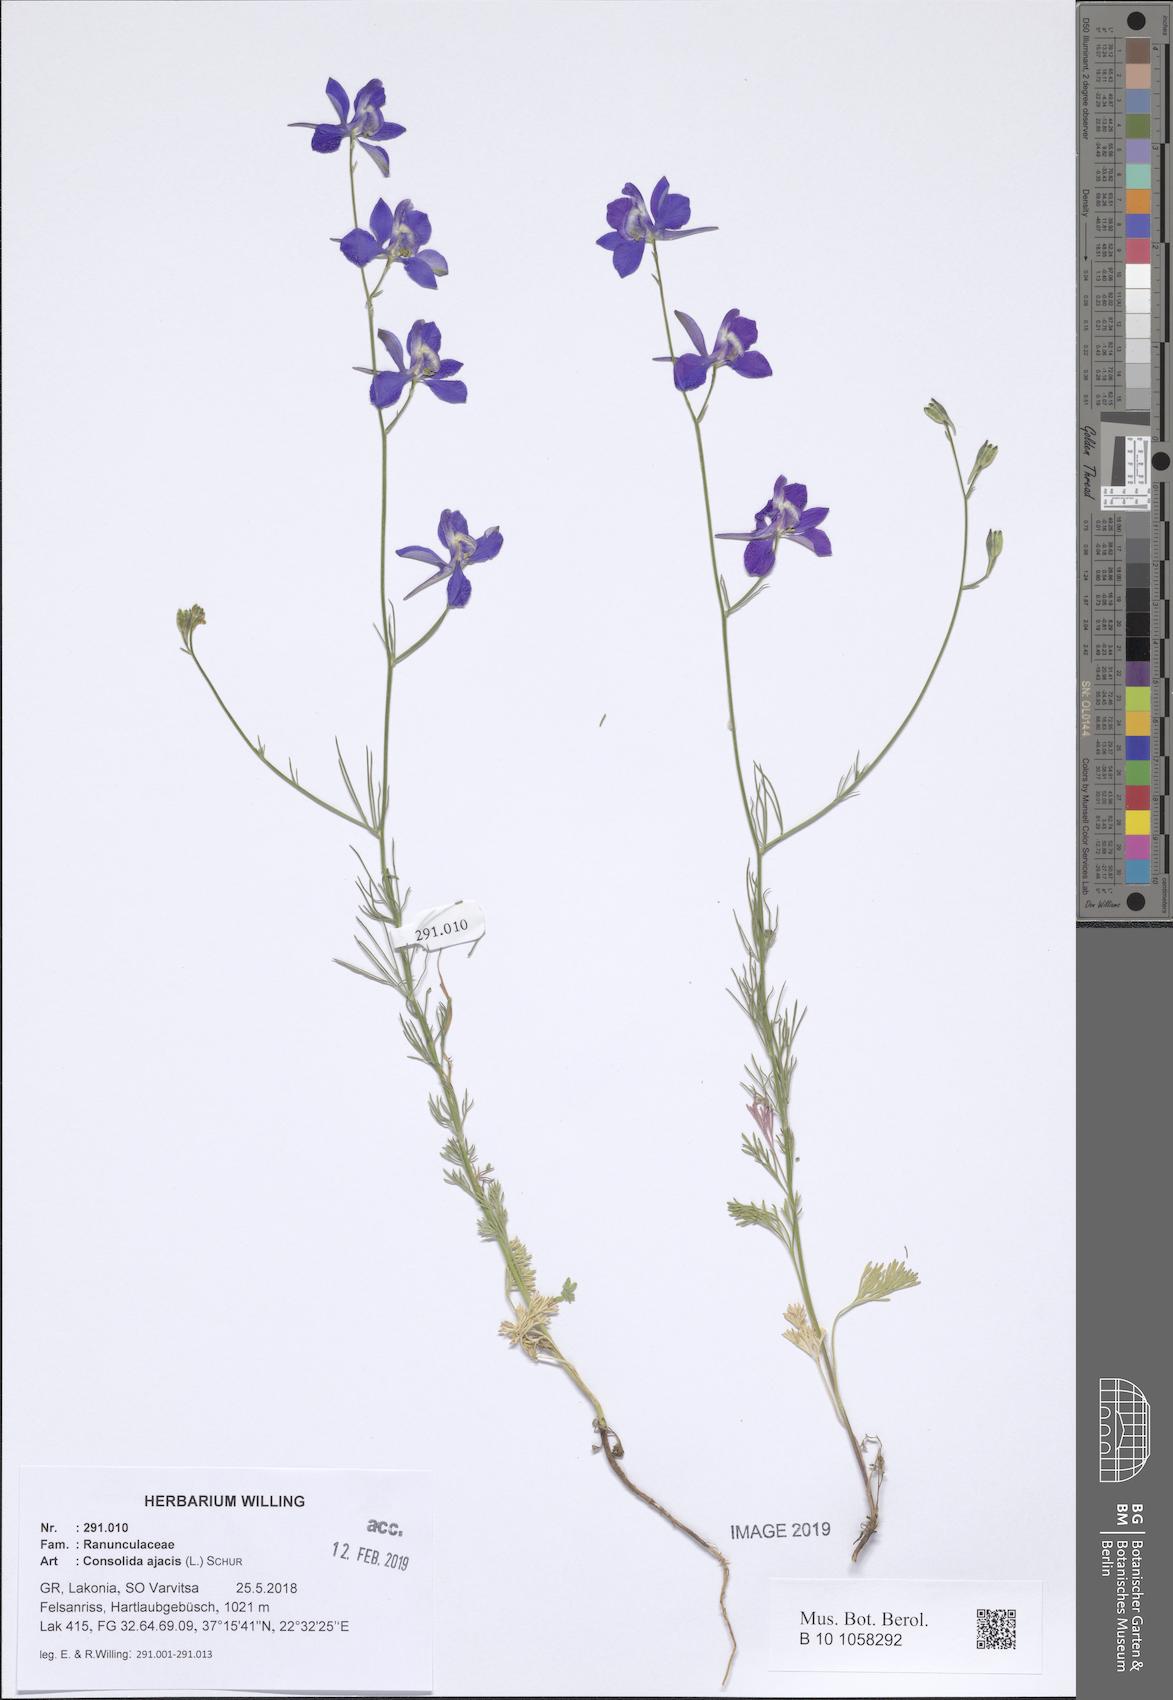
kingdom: Plantae
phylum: Tracheophyta
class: Magnoliopsida
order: Ranunculales
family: Ranunculaceae
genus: Delphinium
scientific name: Delphinium ajacis
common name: Doubtful knight's-spur
